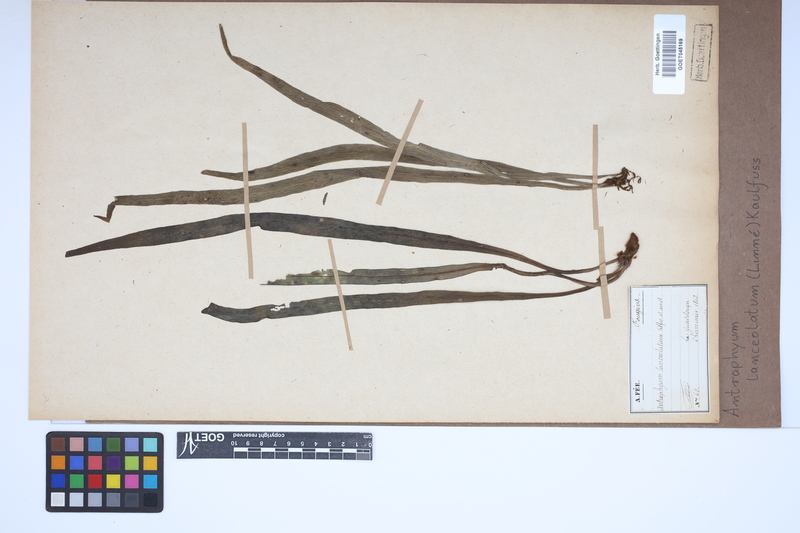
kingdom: Plantae
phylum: Tracheophyta
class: Polypodiopsida
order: Polypodiales
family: Pteridaceae
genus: Polytaenium
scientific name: Polytaenium feei
